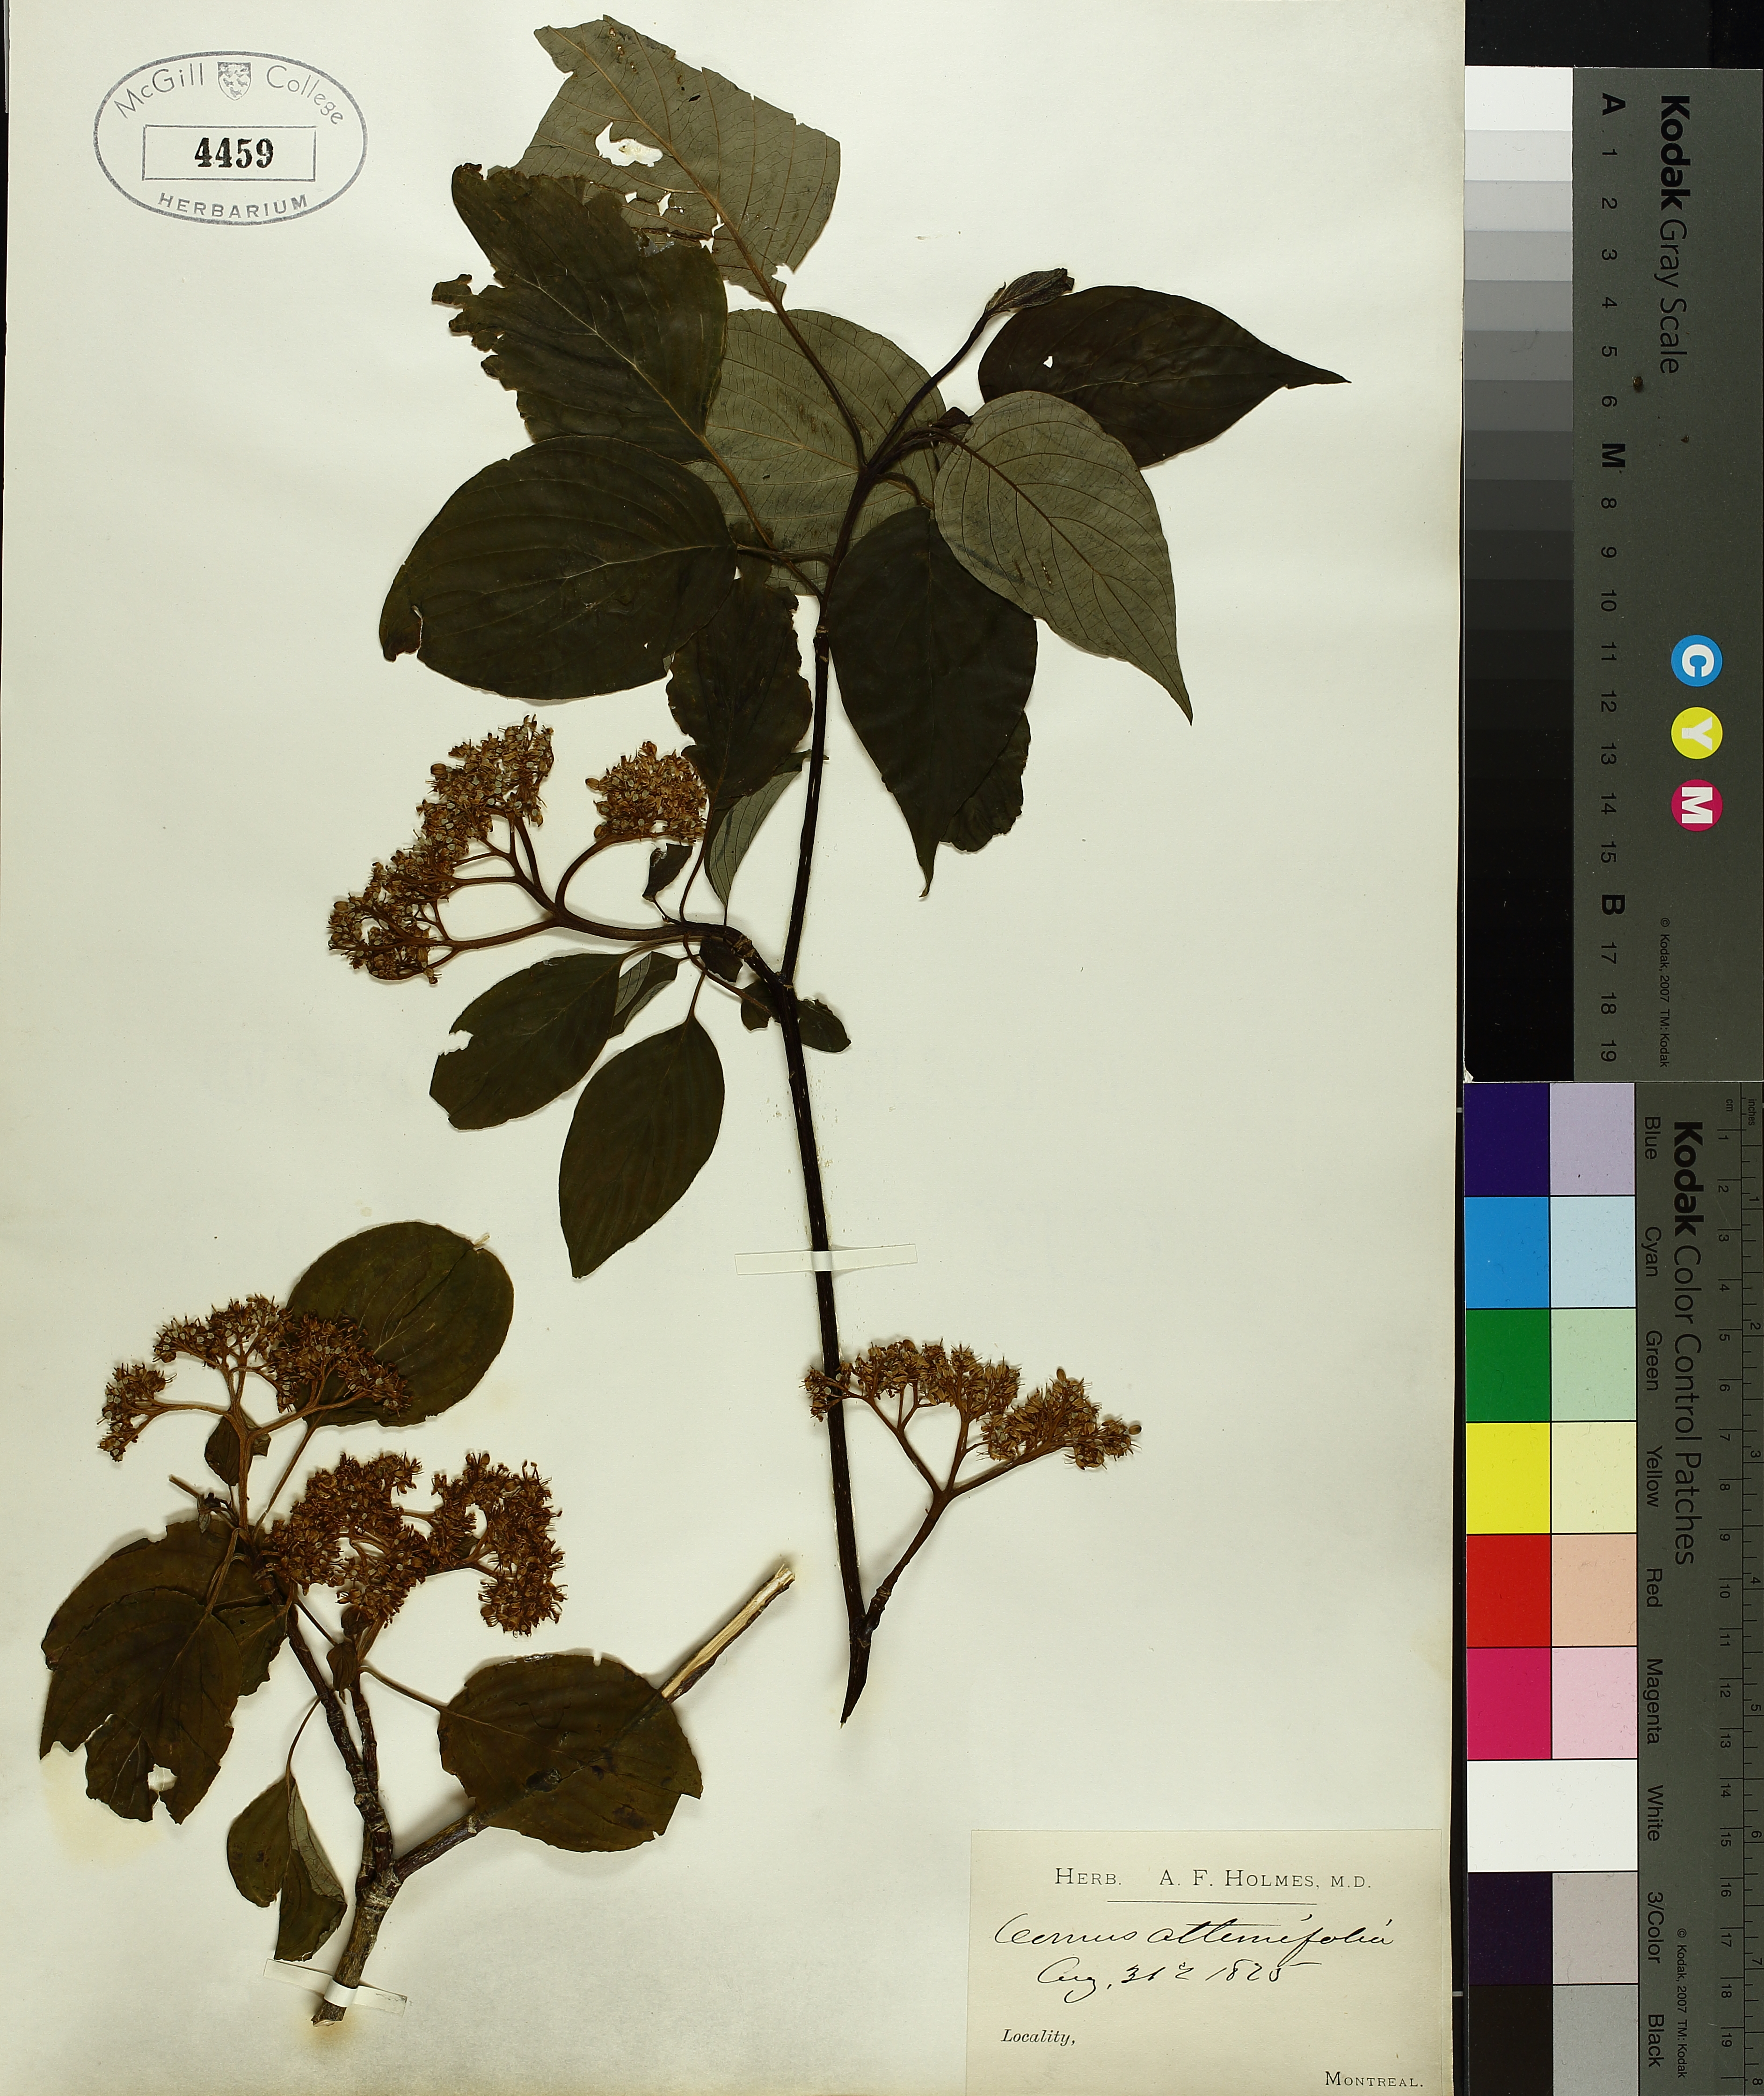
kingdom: Plantae
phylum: Tracheophyta
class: Magnoliopsida
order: Cornales
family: Cornaceae
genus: Cornus
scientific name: Cornus alternifolia
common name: Pagoda dogwood
